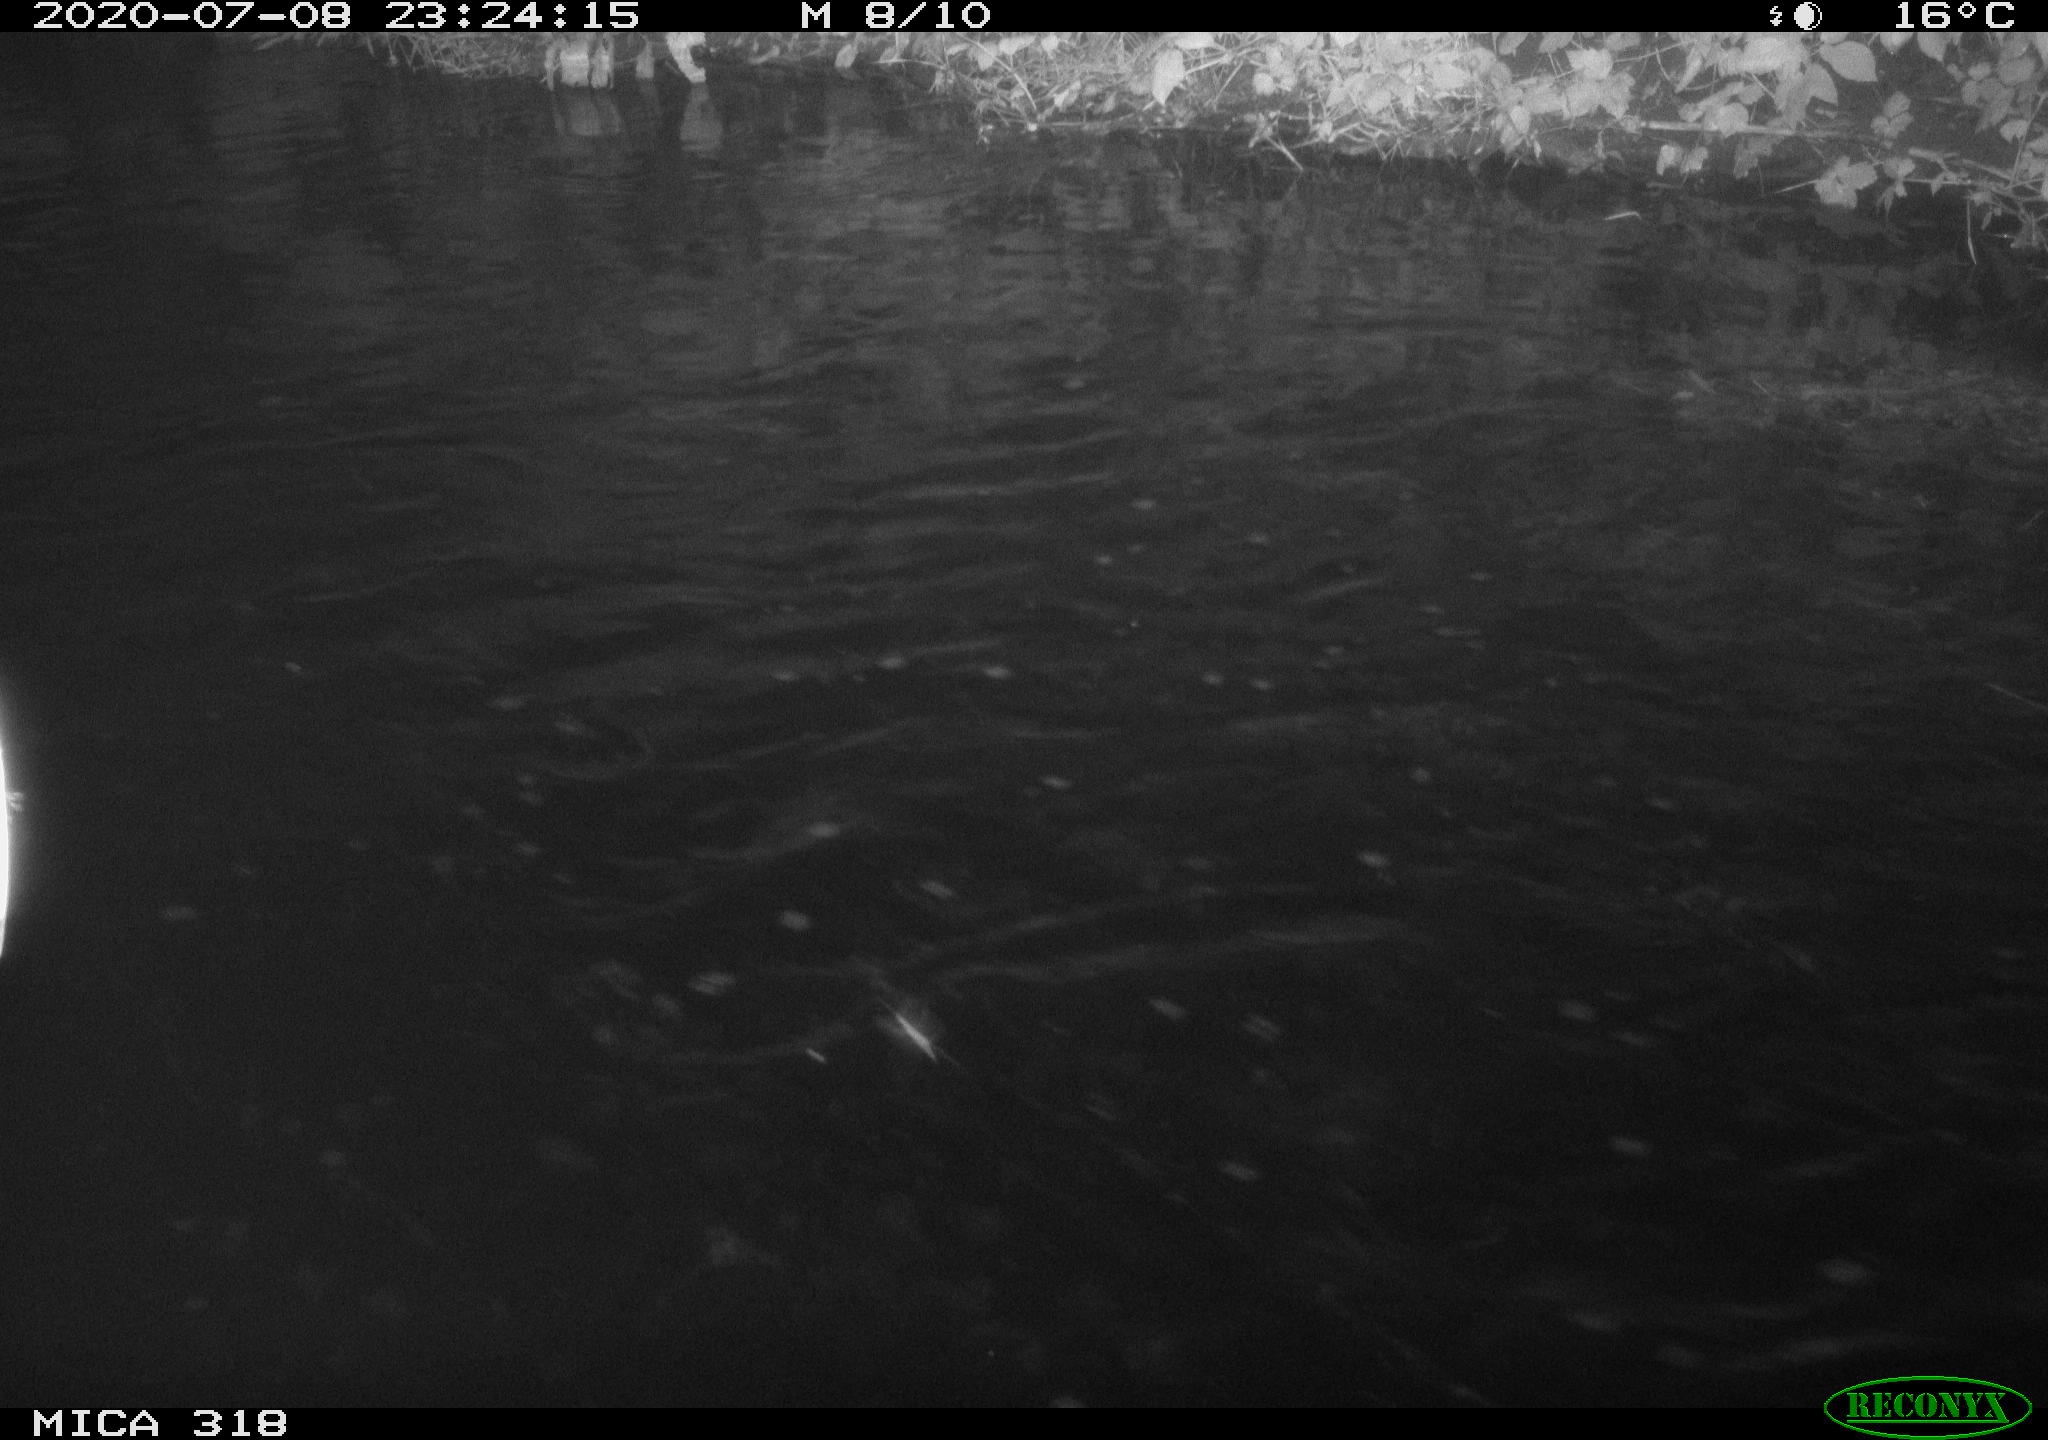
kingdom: Animalia
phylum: Chordata
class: Aves
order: Gruiformes
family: Rallidae
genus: Gallinula
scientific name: Gallinula chloropus
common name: Common moorhen
